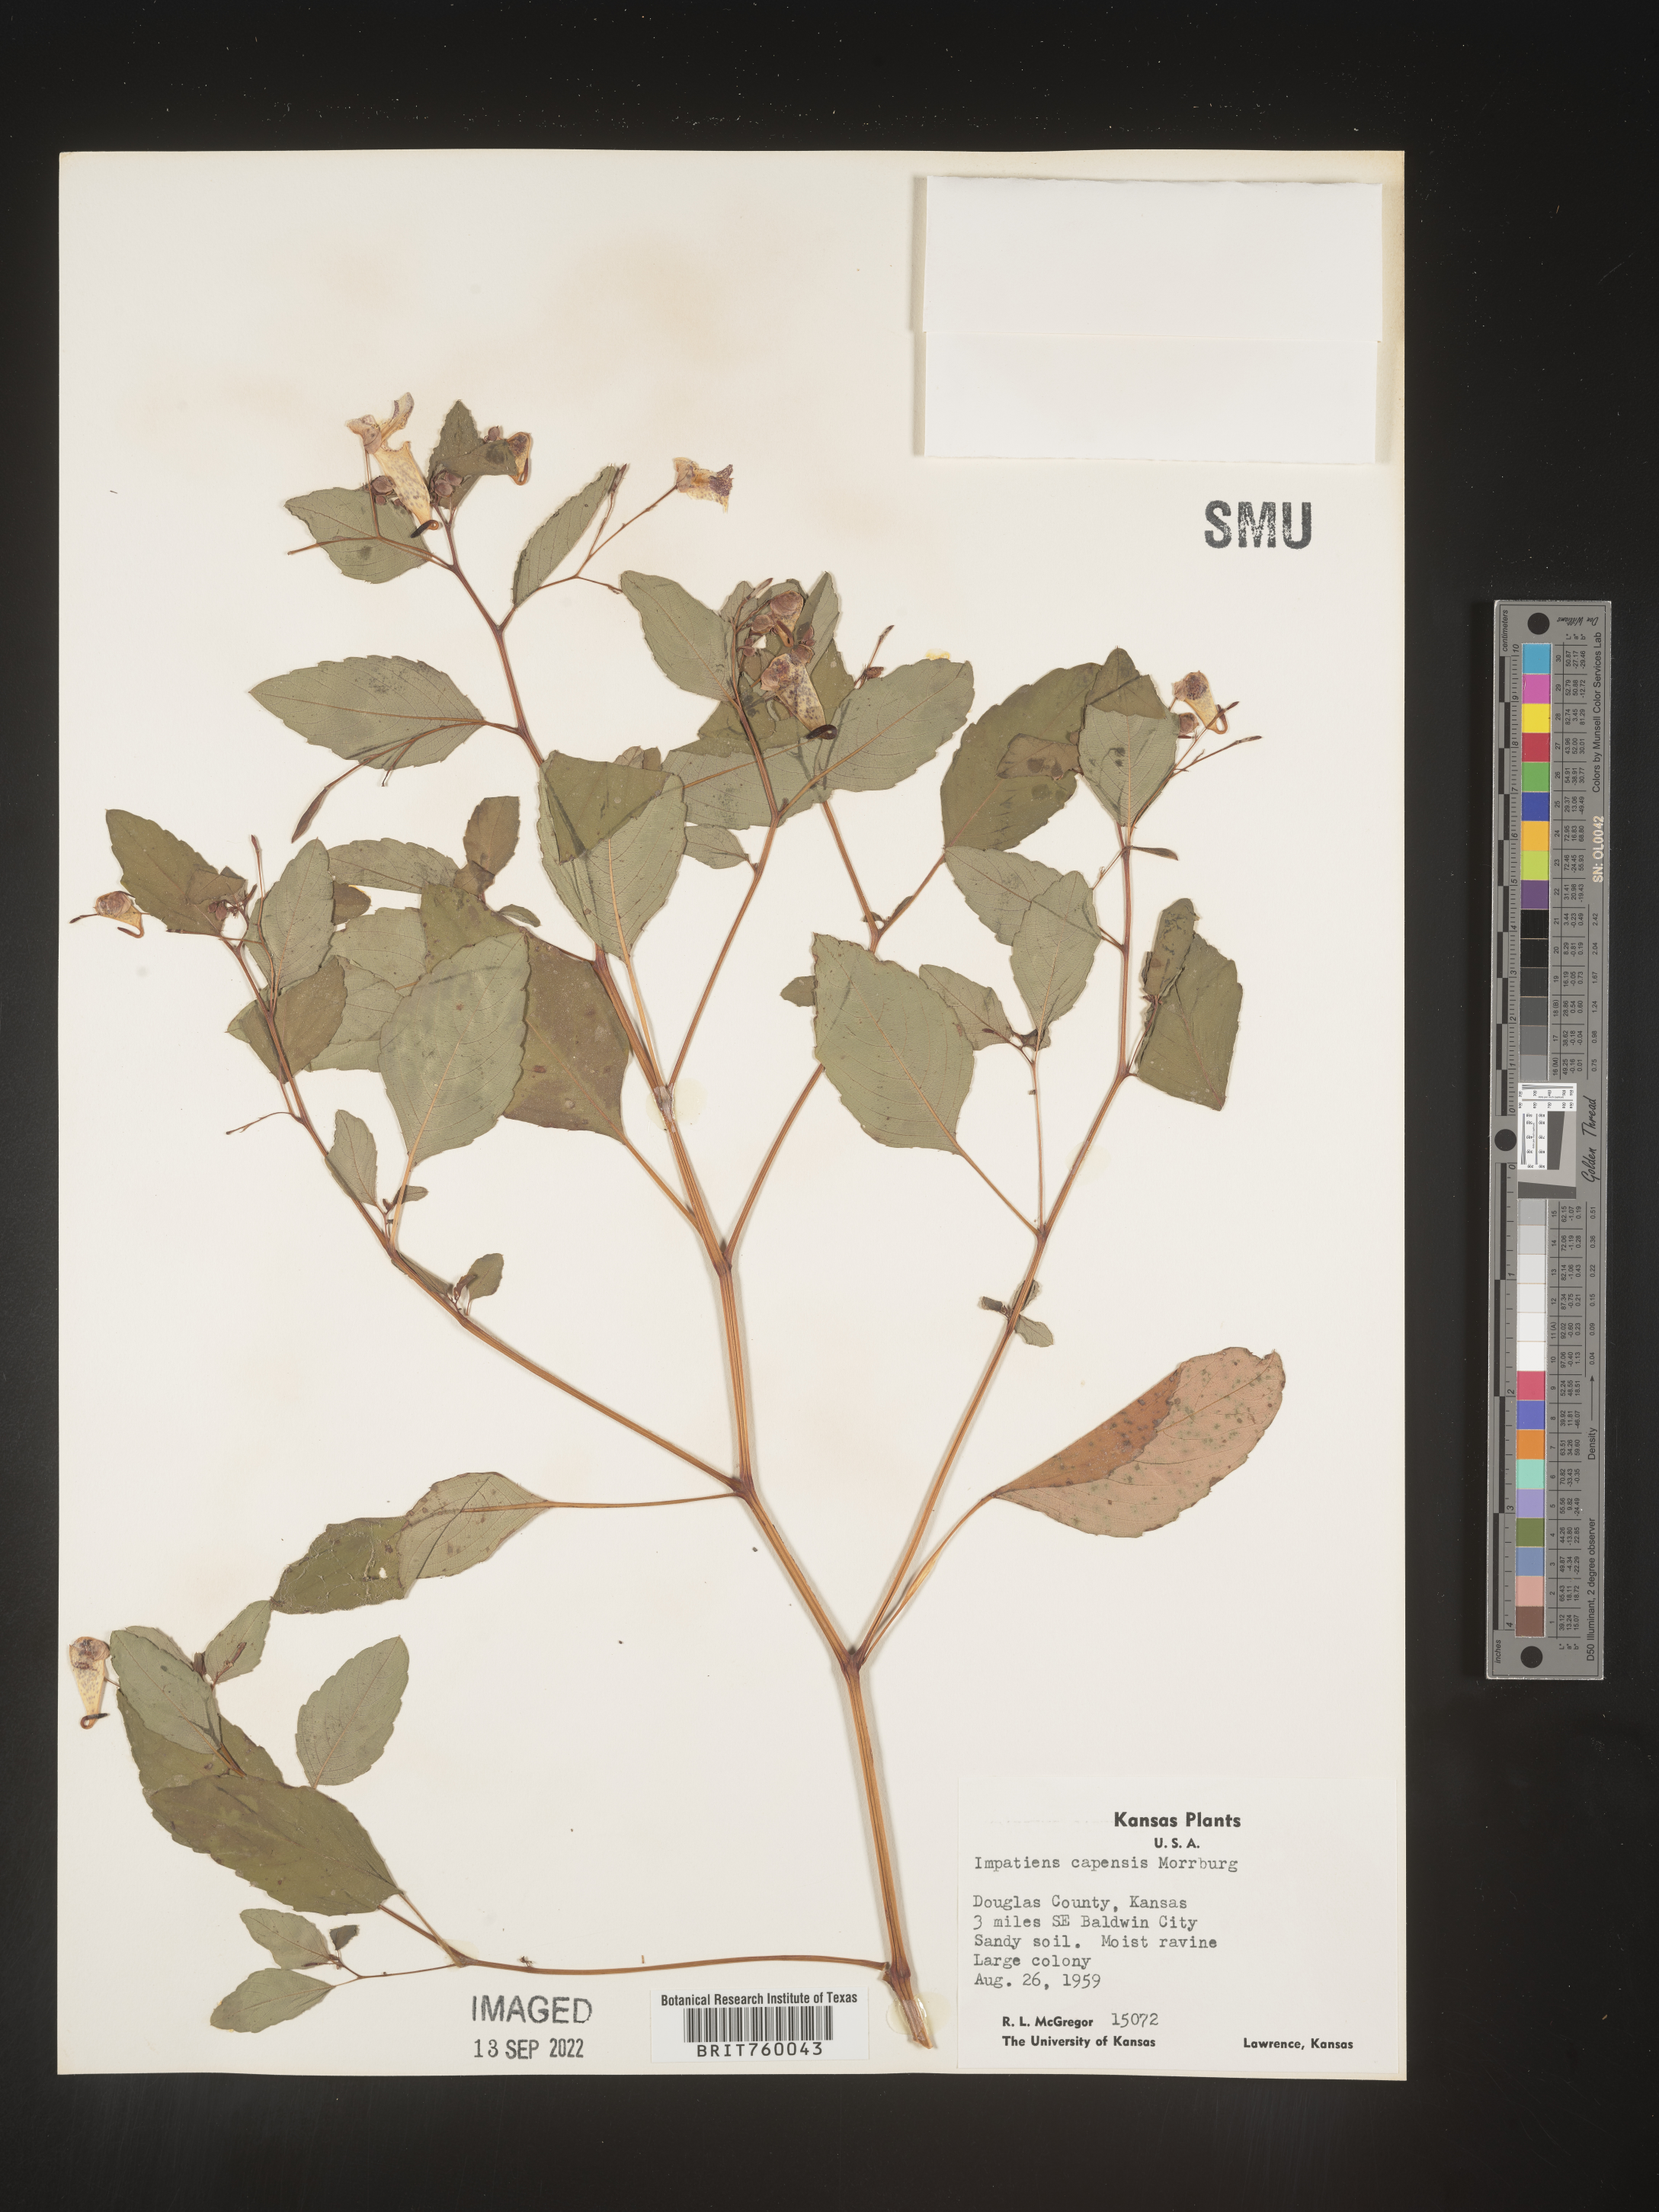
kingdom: Plantae
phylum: Tracheophyta
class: Magnoliopsida
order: Ericales
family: Balsaminaceae
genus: Impatiens
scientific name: Impatiens capensis
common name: Orange balsam
